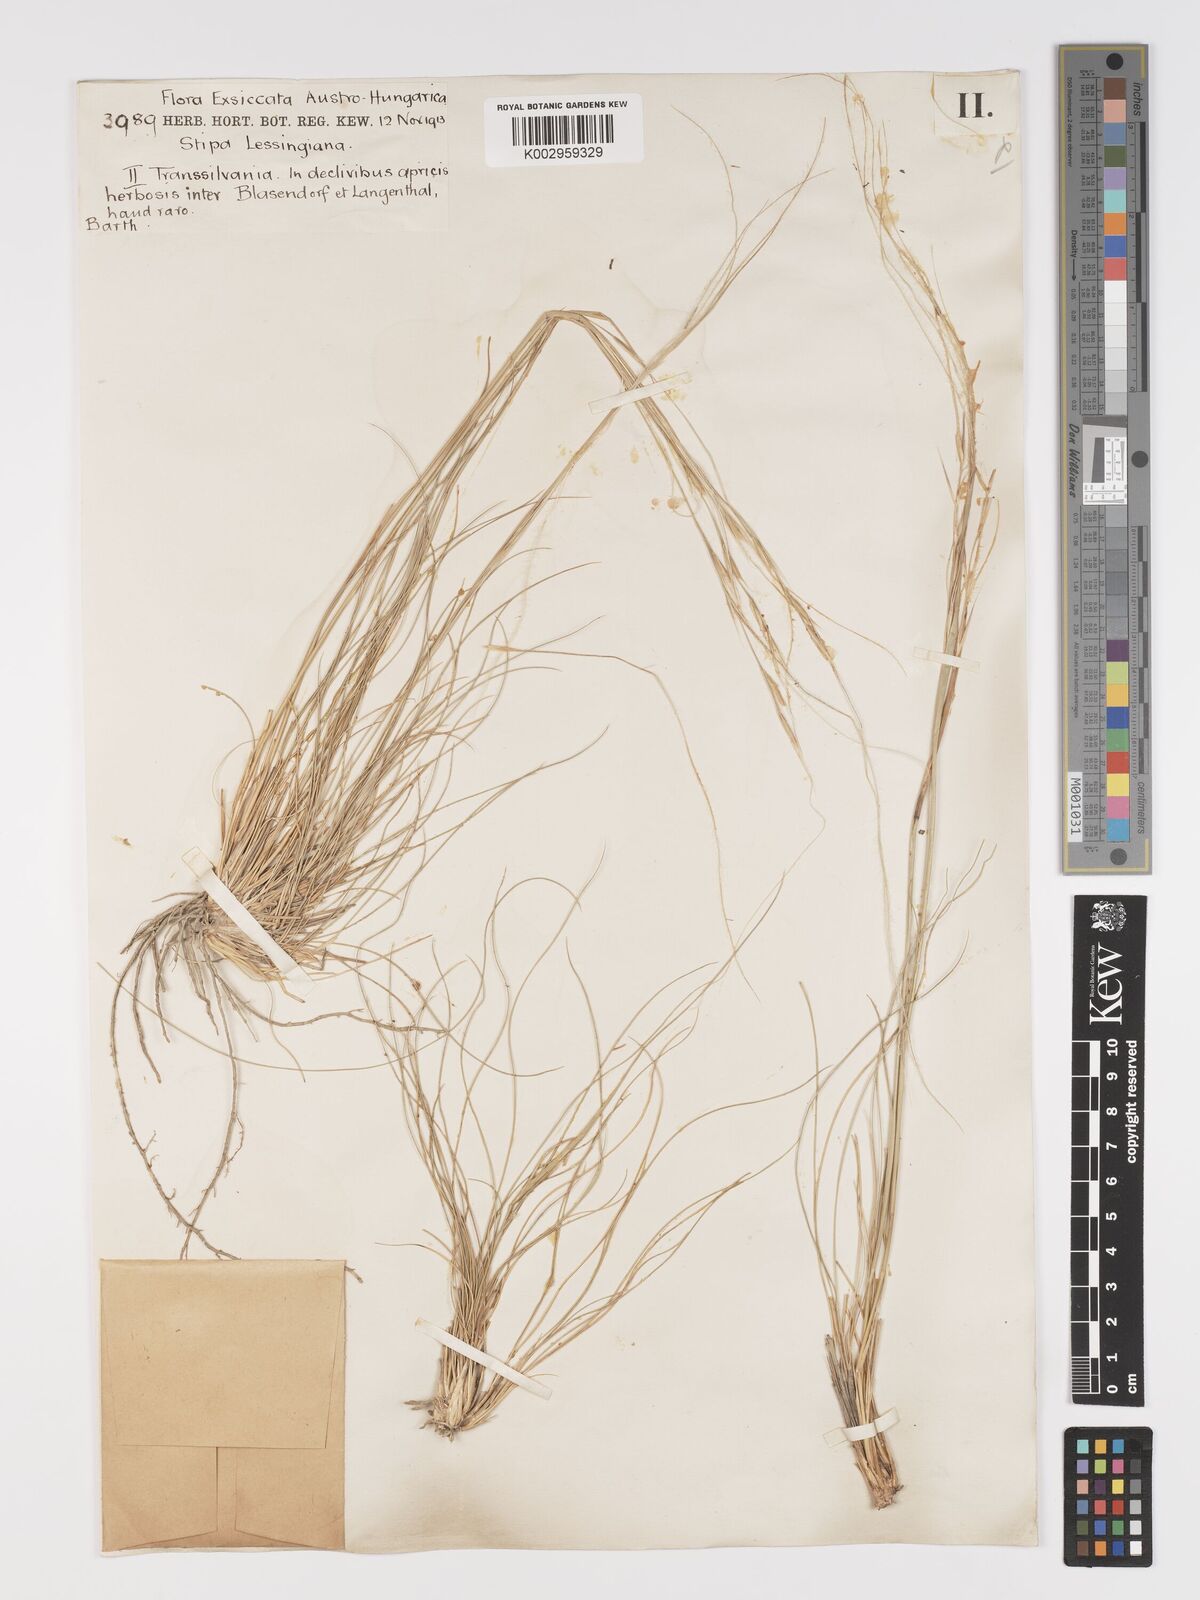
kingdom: Plantae
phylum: Tracheophyta
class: Liliopsida
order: Poales
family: Poaceae
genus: Stipa
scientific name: Stipa lessingiana
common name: Needle grass
